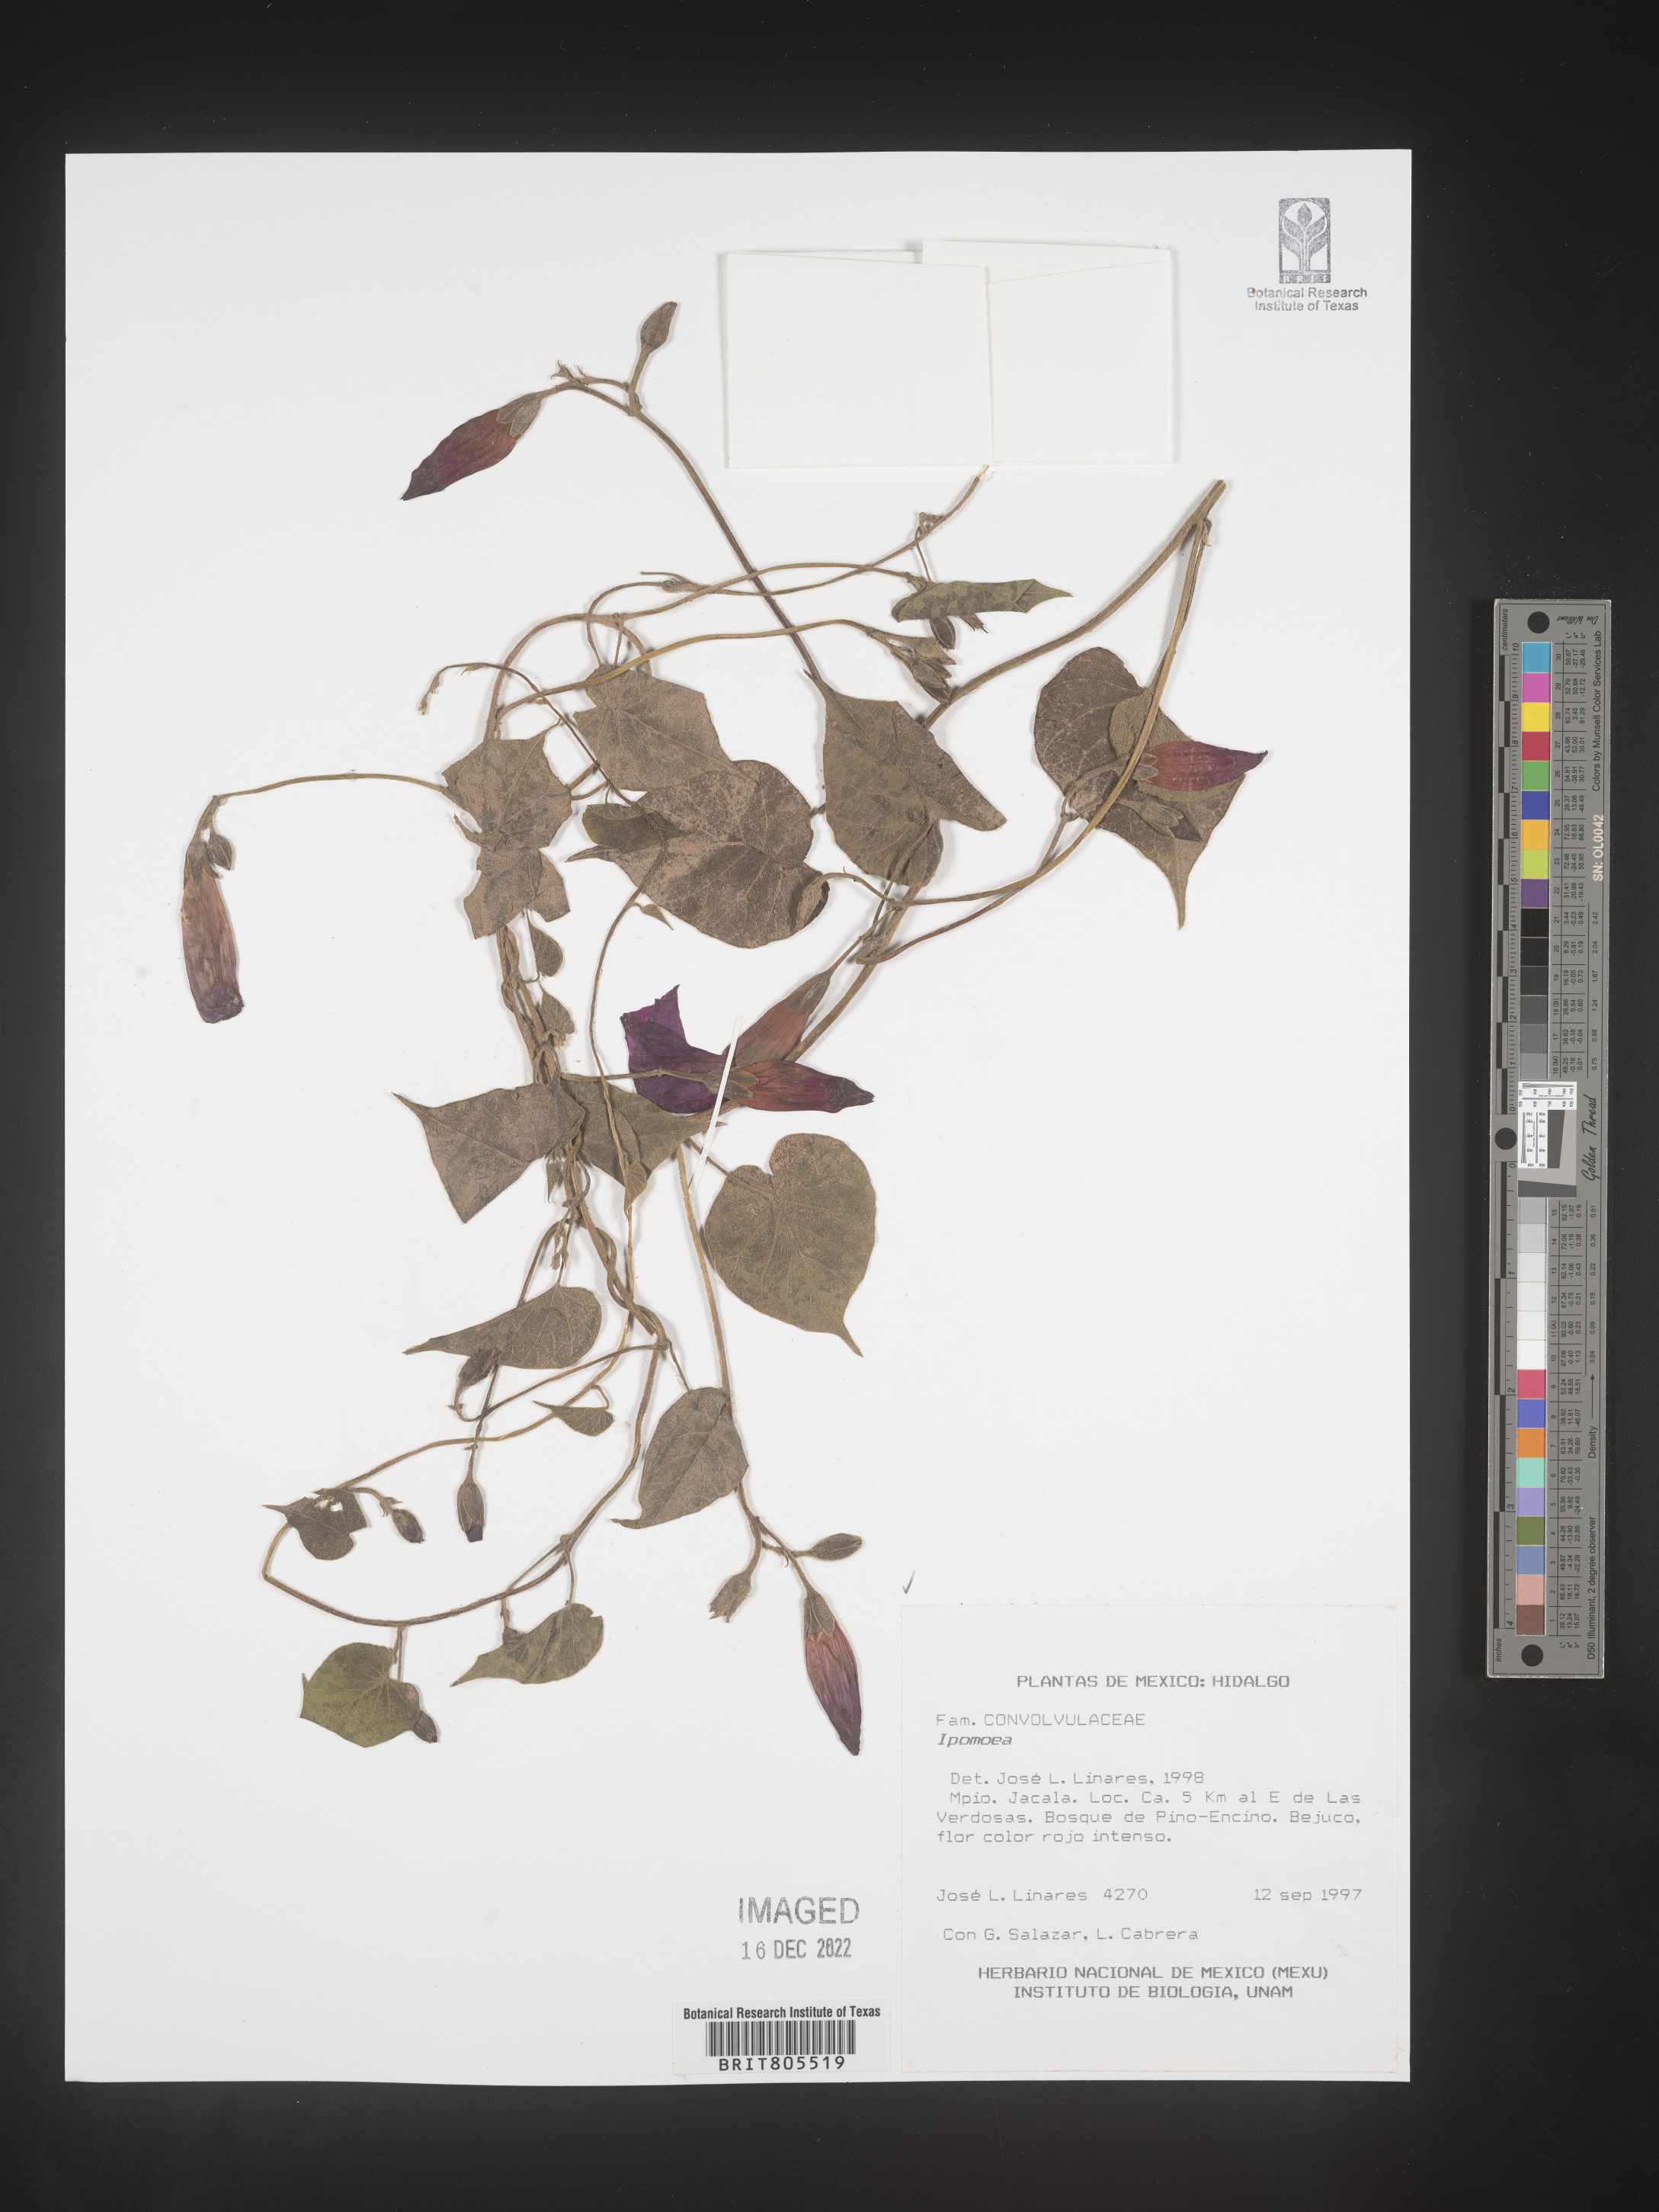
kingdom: Plantae
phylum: Tracheophyta
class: Magnoliopsida
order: Solanales
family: Convolvulaceae
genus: Ipomoea
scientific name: Ipomoea
